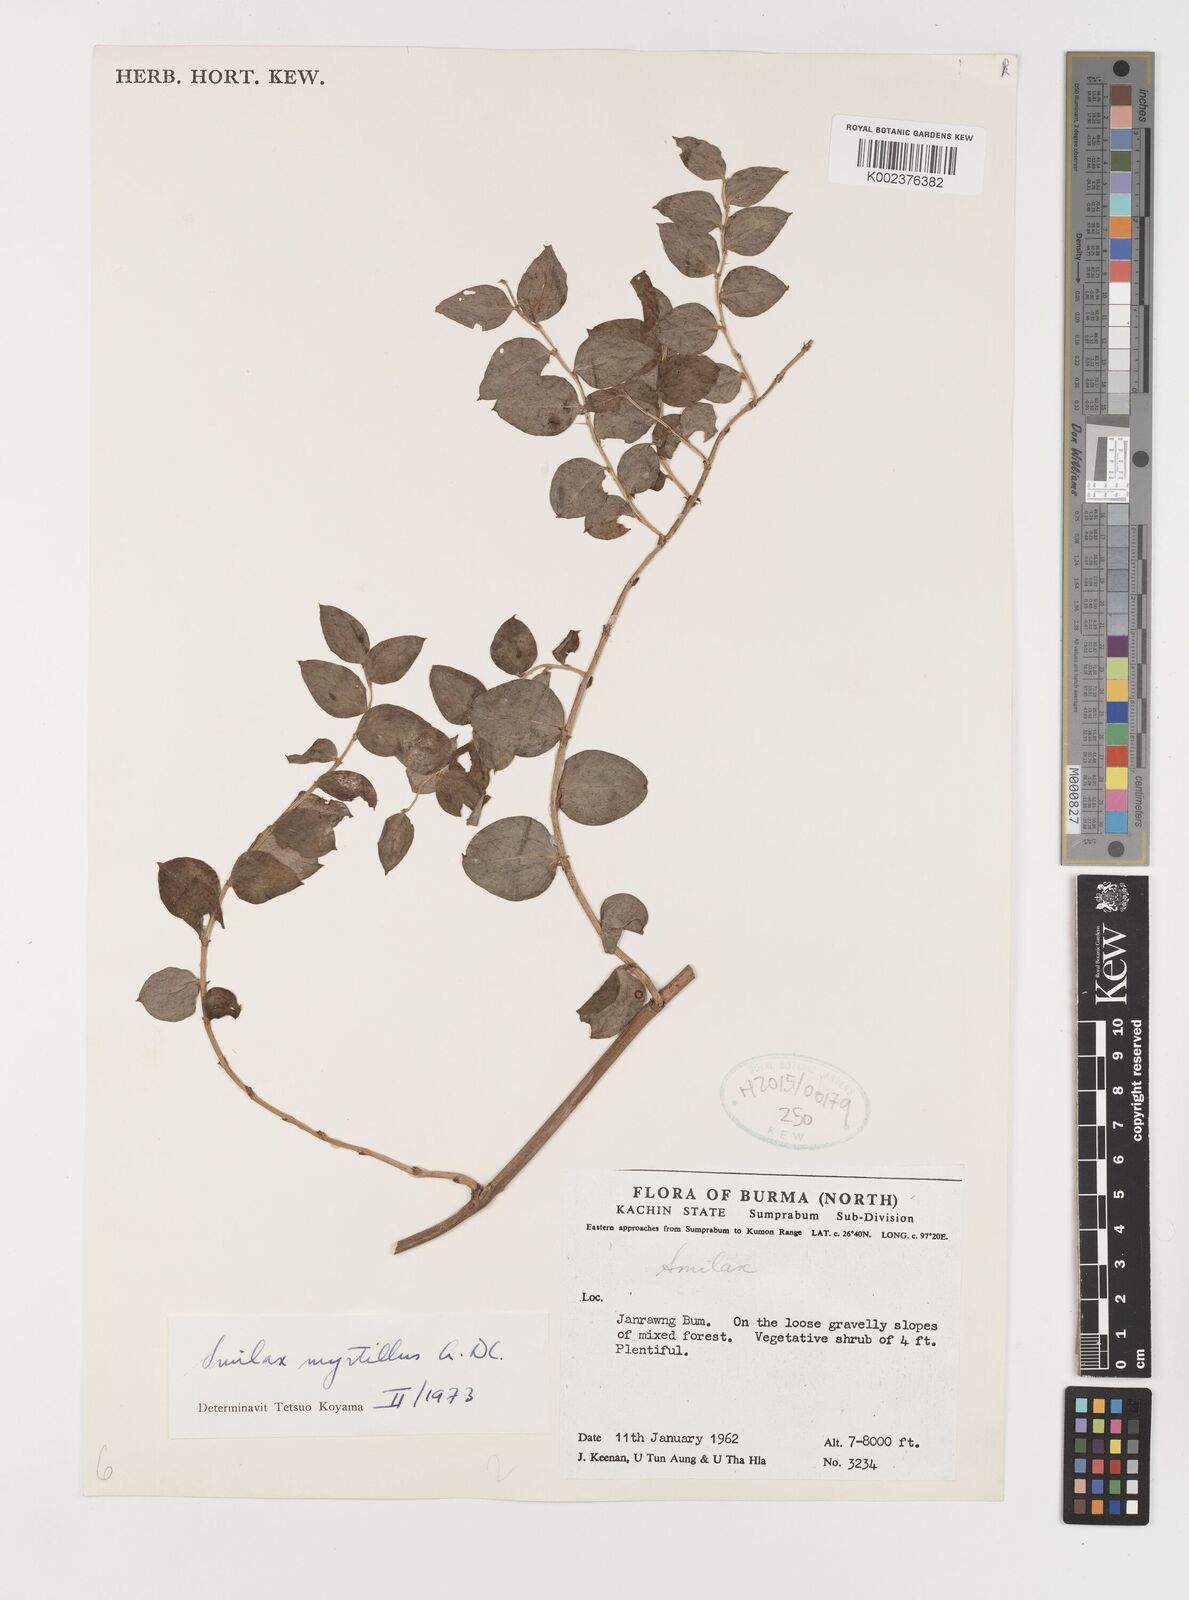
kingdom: Plantae
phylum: Tracheophyta
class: Liliopsida
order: Liliales
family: Smilacaceae
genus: Smilax
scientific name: Smilax myrtillus
